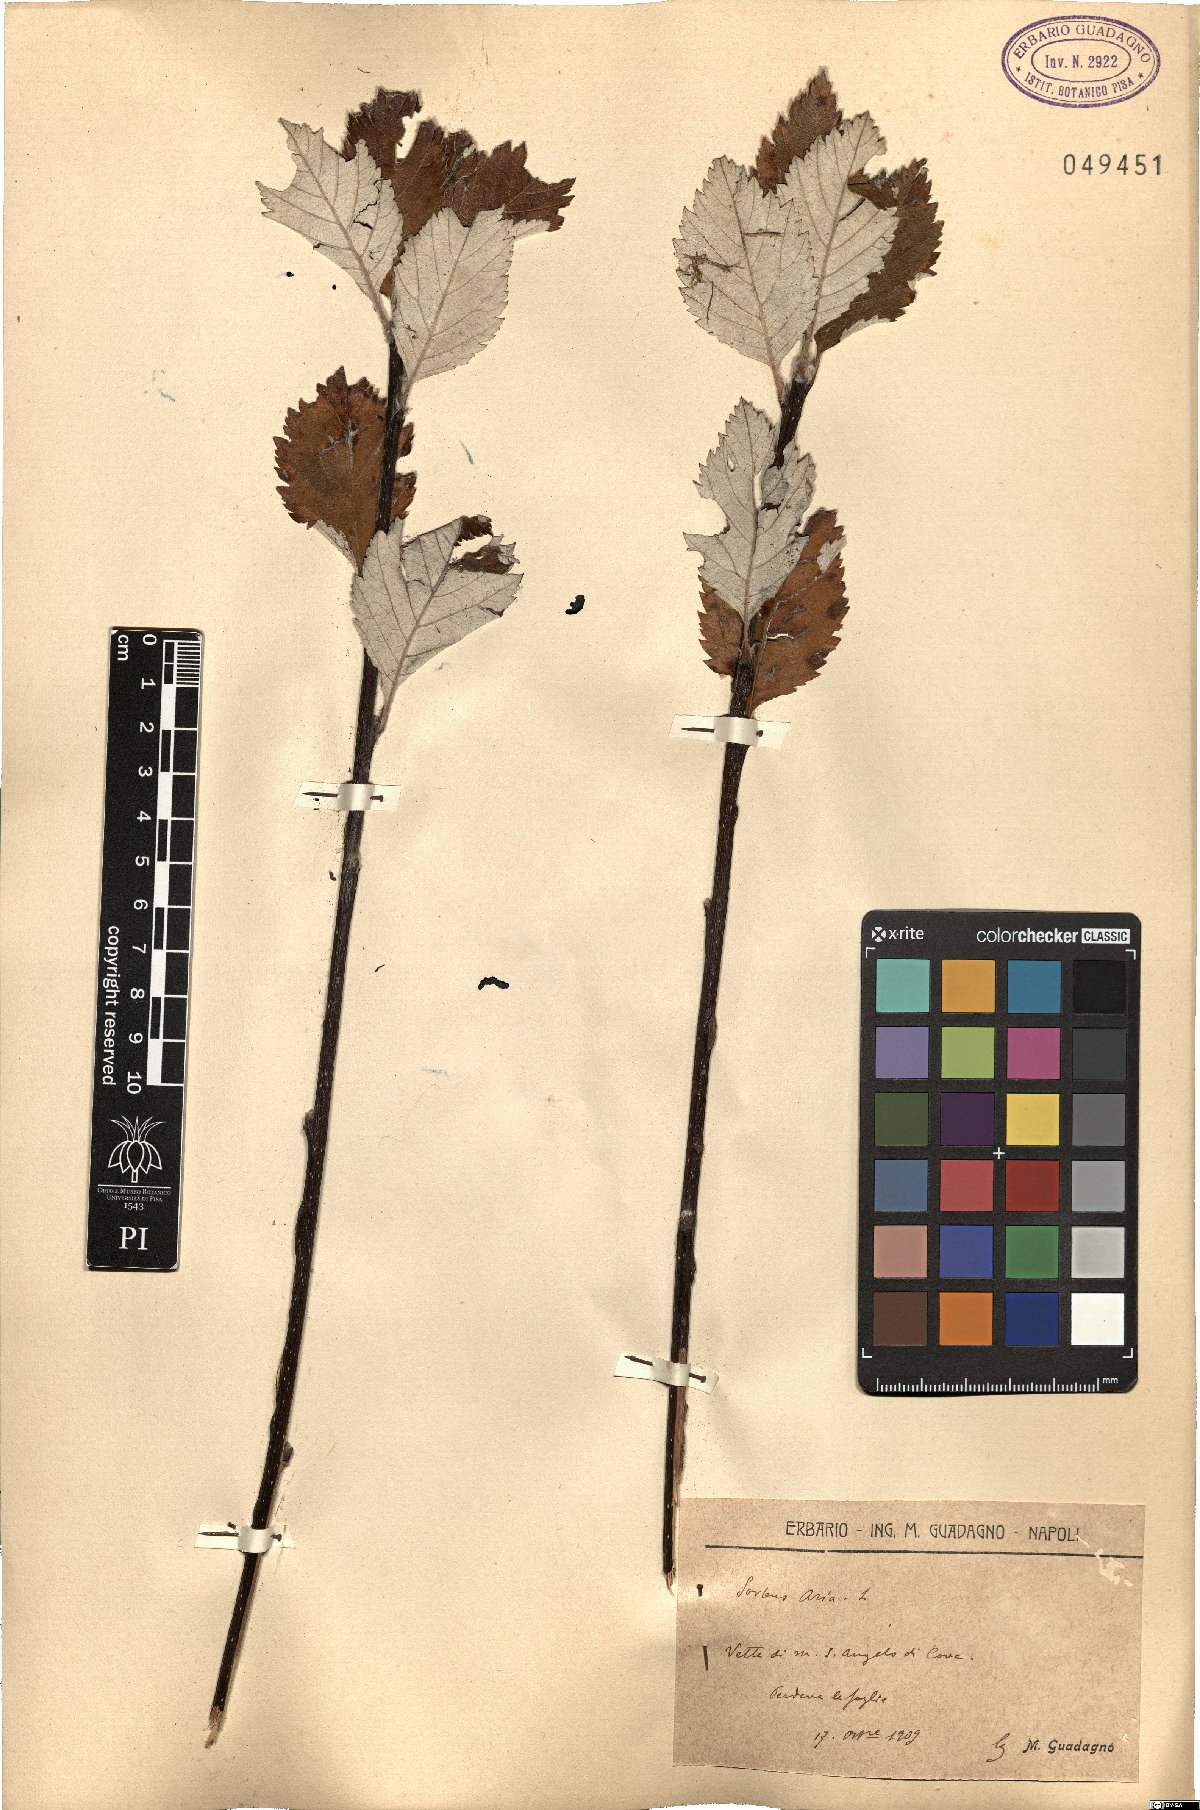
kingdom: Plantae
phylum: Tracheophyta
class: Magnoliopsida
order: Rosales
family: Rosaceae
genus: Aria
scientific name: Aria edulis
